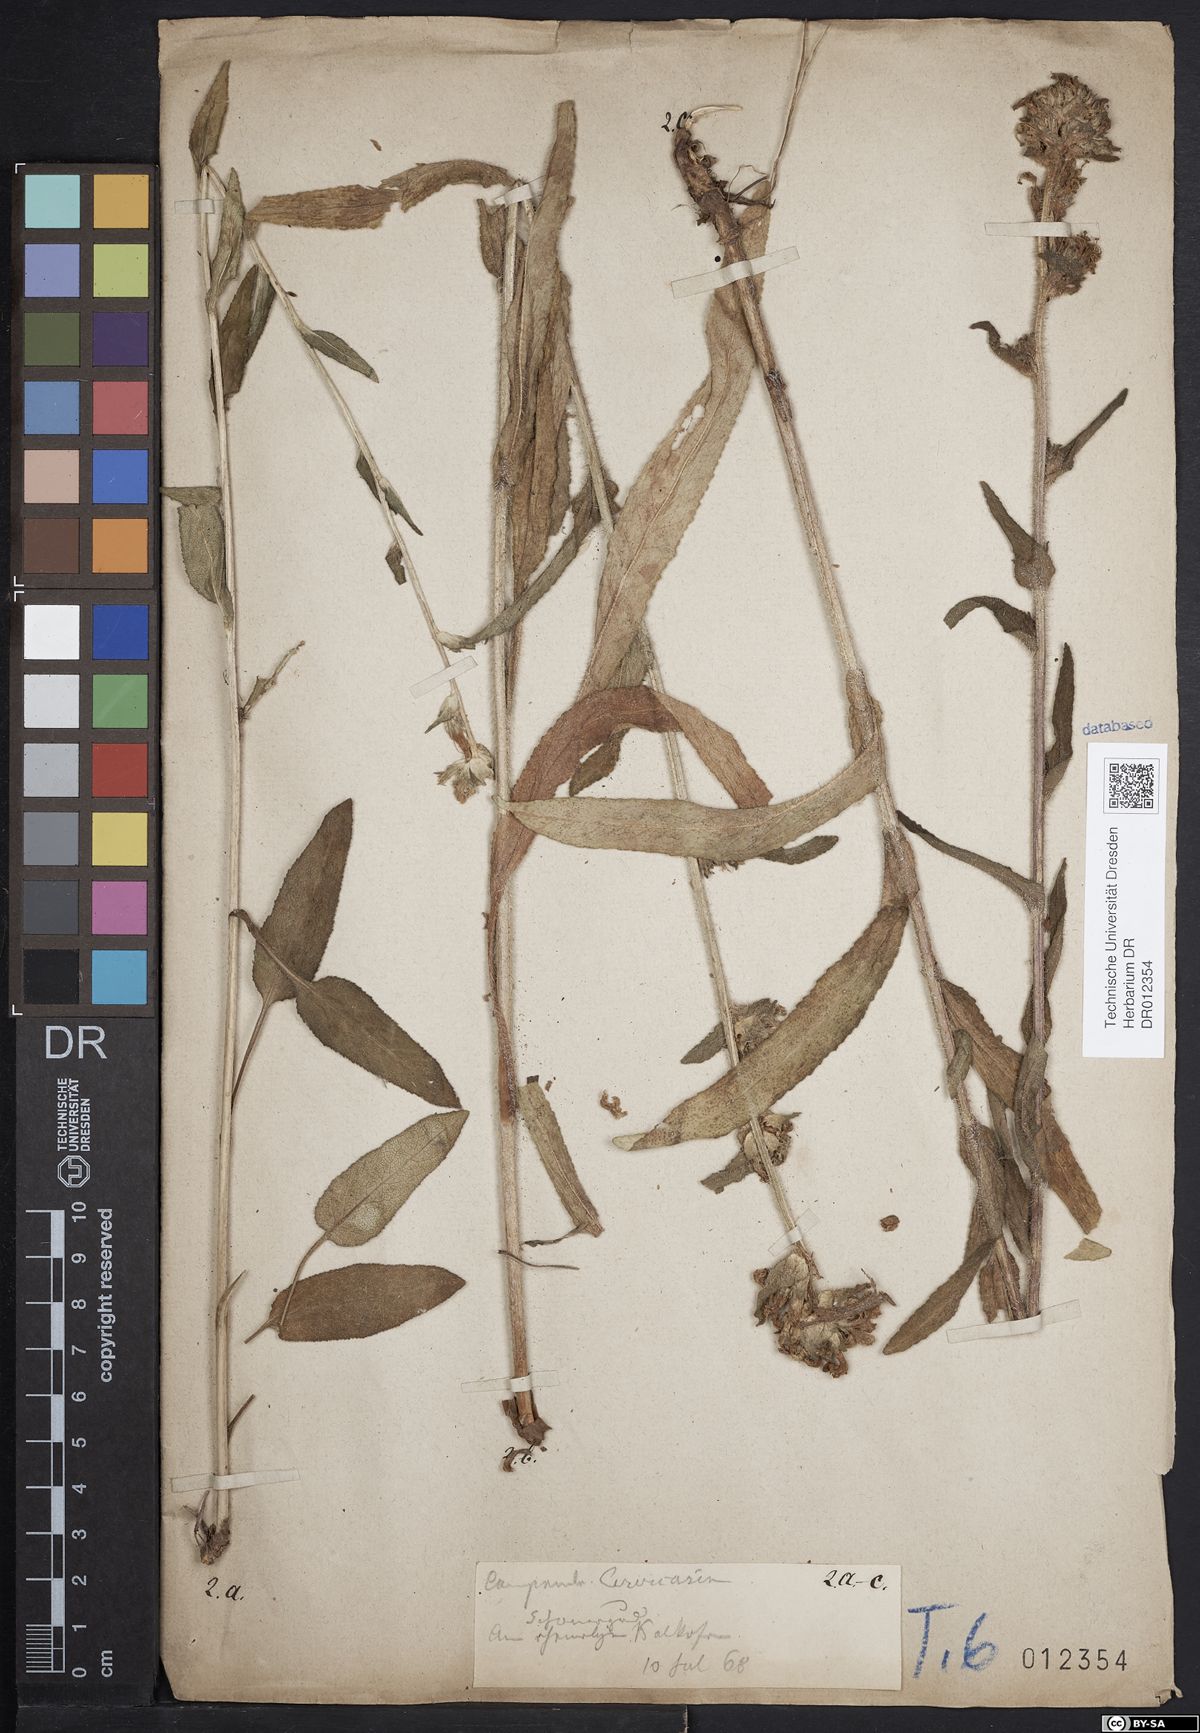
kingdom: Plantae
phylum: Tracheophyta
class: Magnoliopsida
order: Asterales
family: Campanulaceae
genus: Campanula
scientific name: Campanula cervicaria
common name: Bristly bellflower
